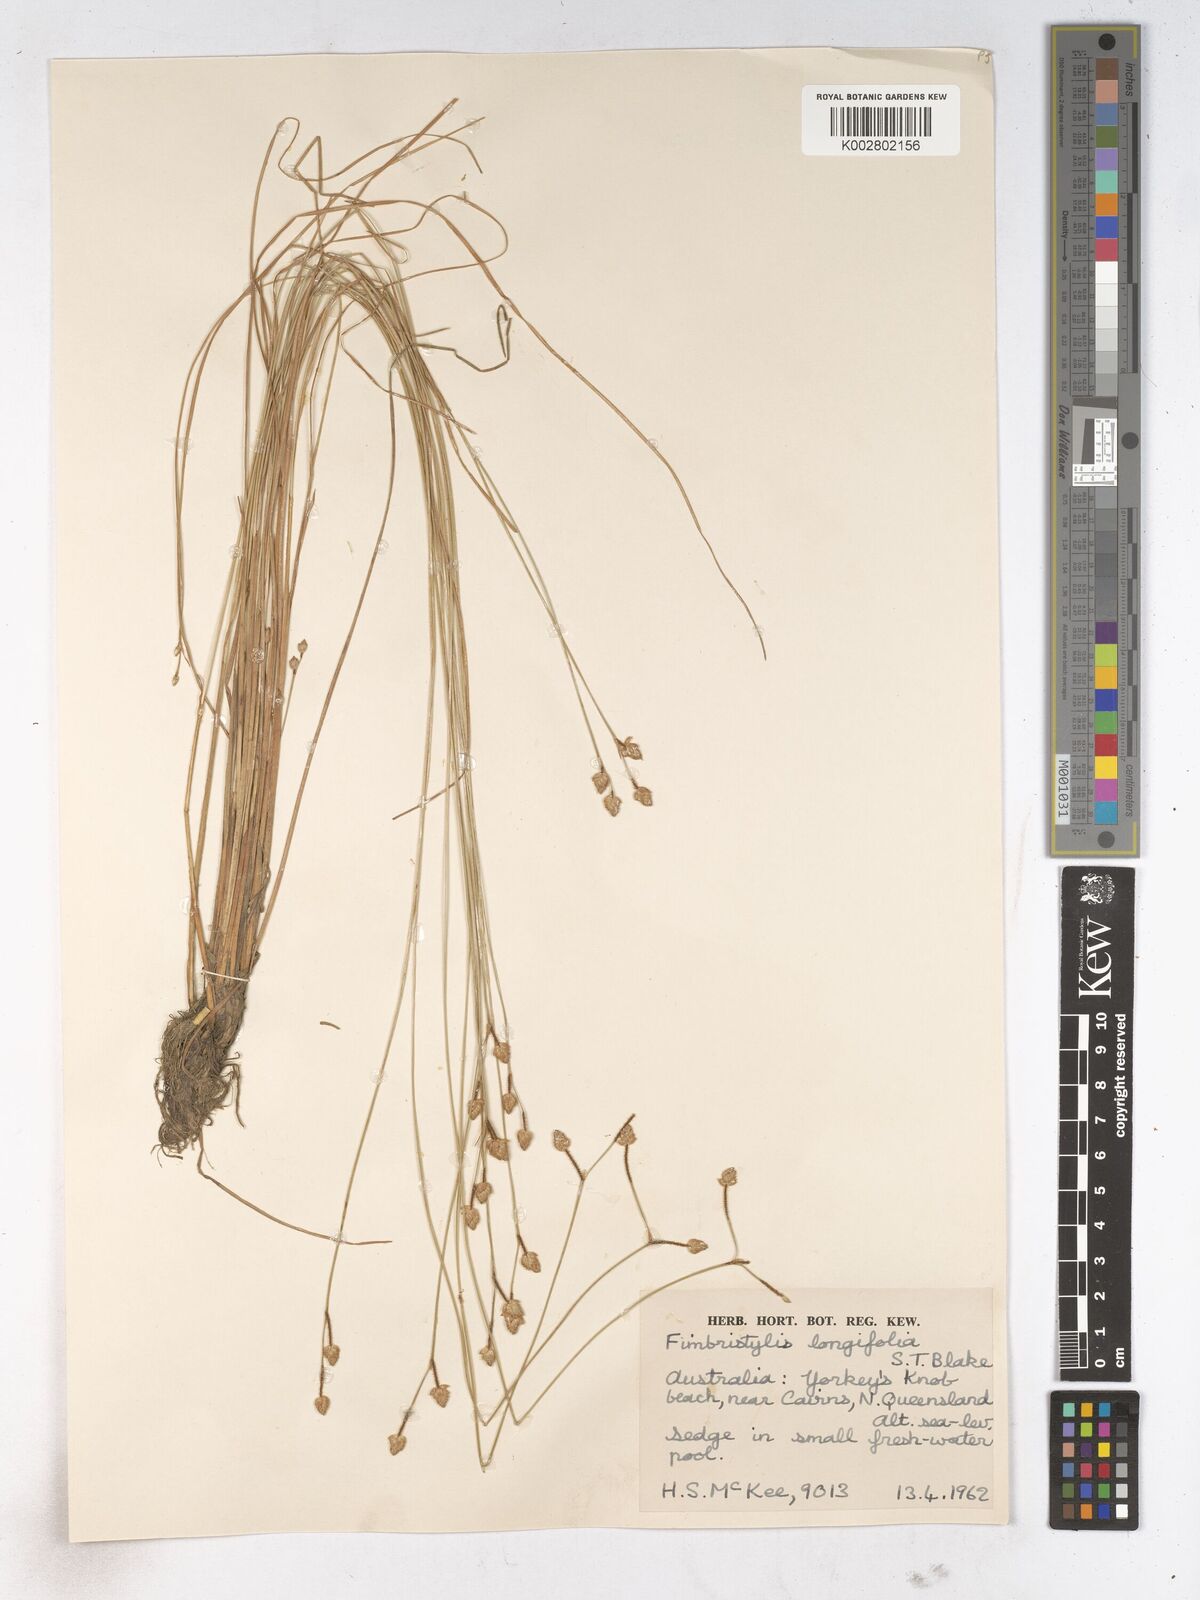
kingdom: Plantae
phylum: Tracheophyta
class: Liliopsida
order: Poales
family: Cyperaceae
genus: Fimbristylis
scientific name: Fimbristylis schoenoides
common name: Ditch fimbry
